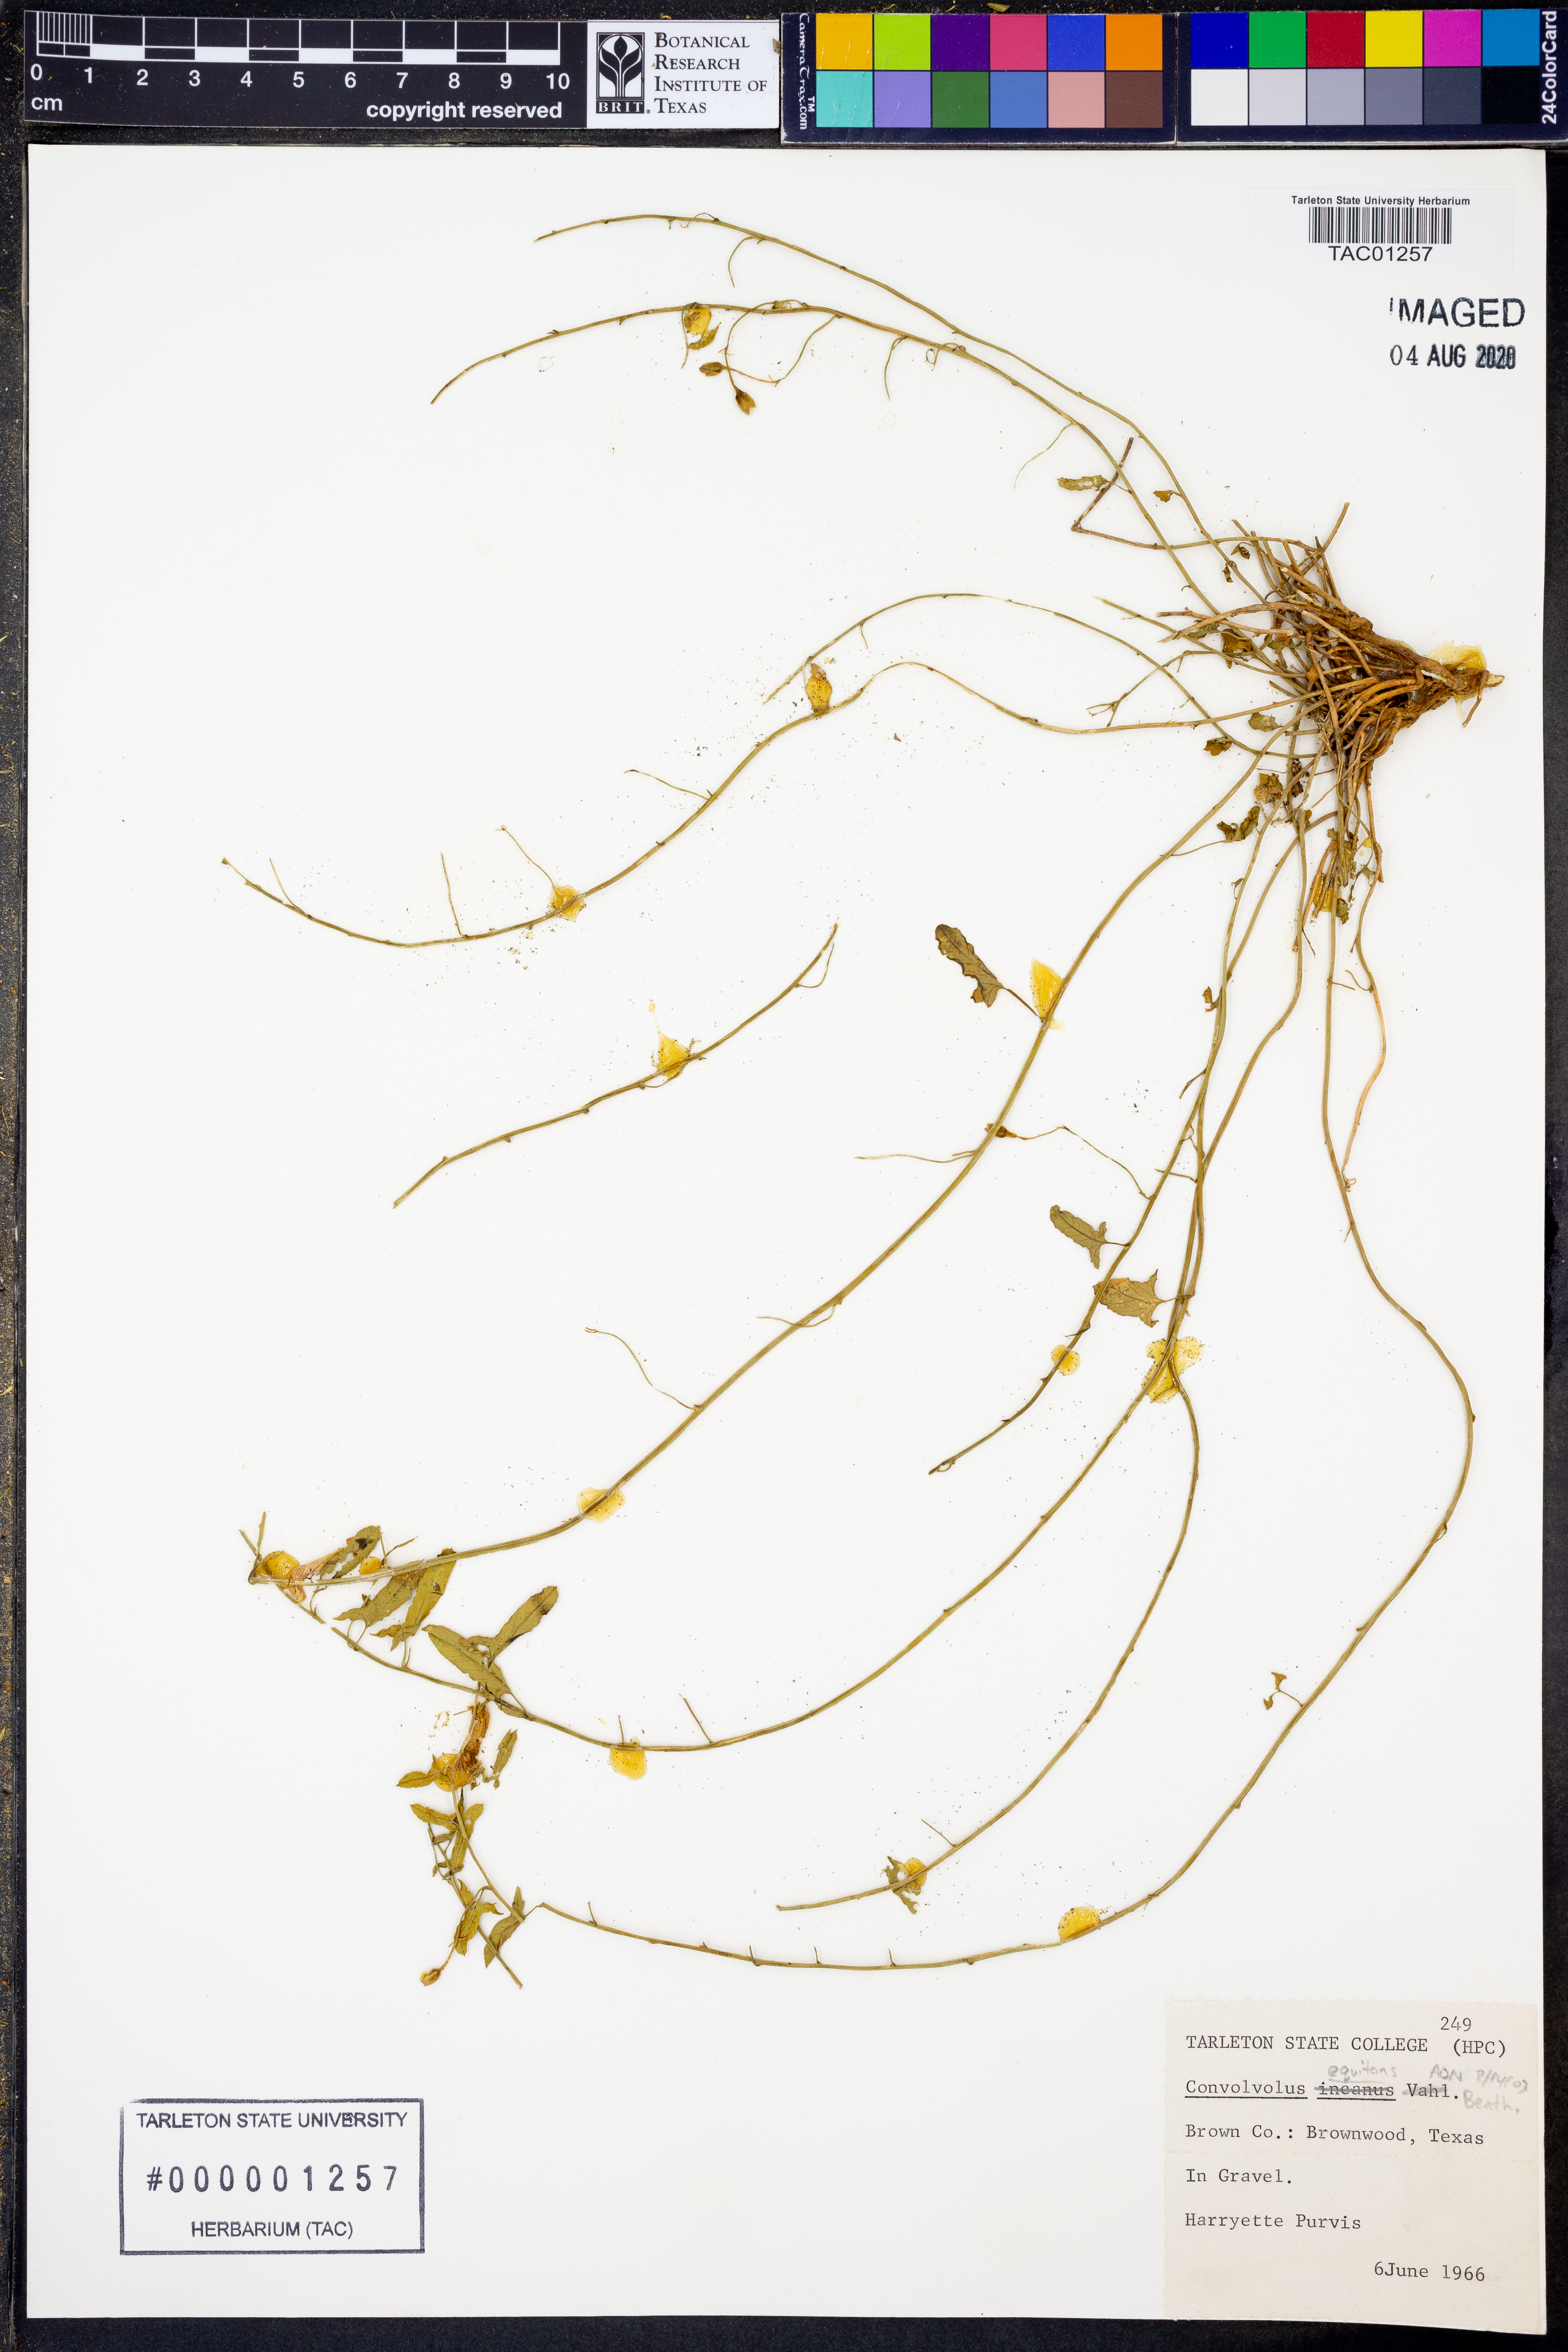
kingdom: Plantae
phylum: Tracheophyta
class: Magnoliopsida
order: Solanales
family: Convolvulaceae
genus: Convolvulus
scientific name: Convolvulus equitans
